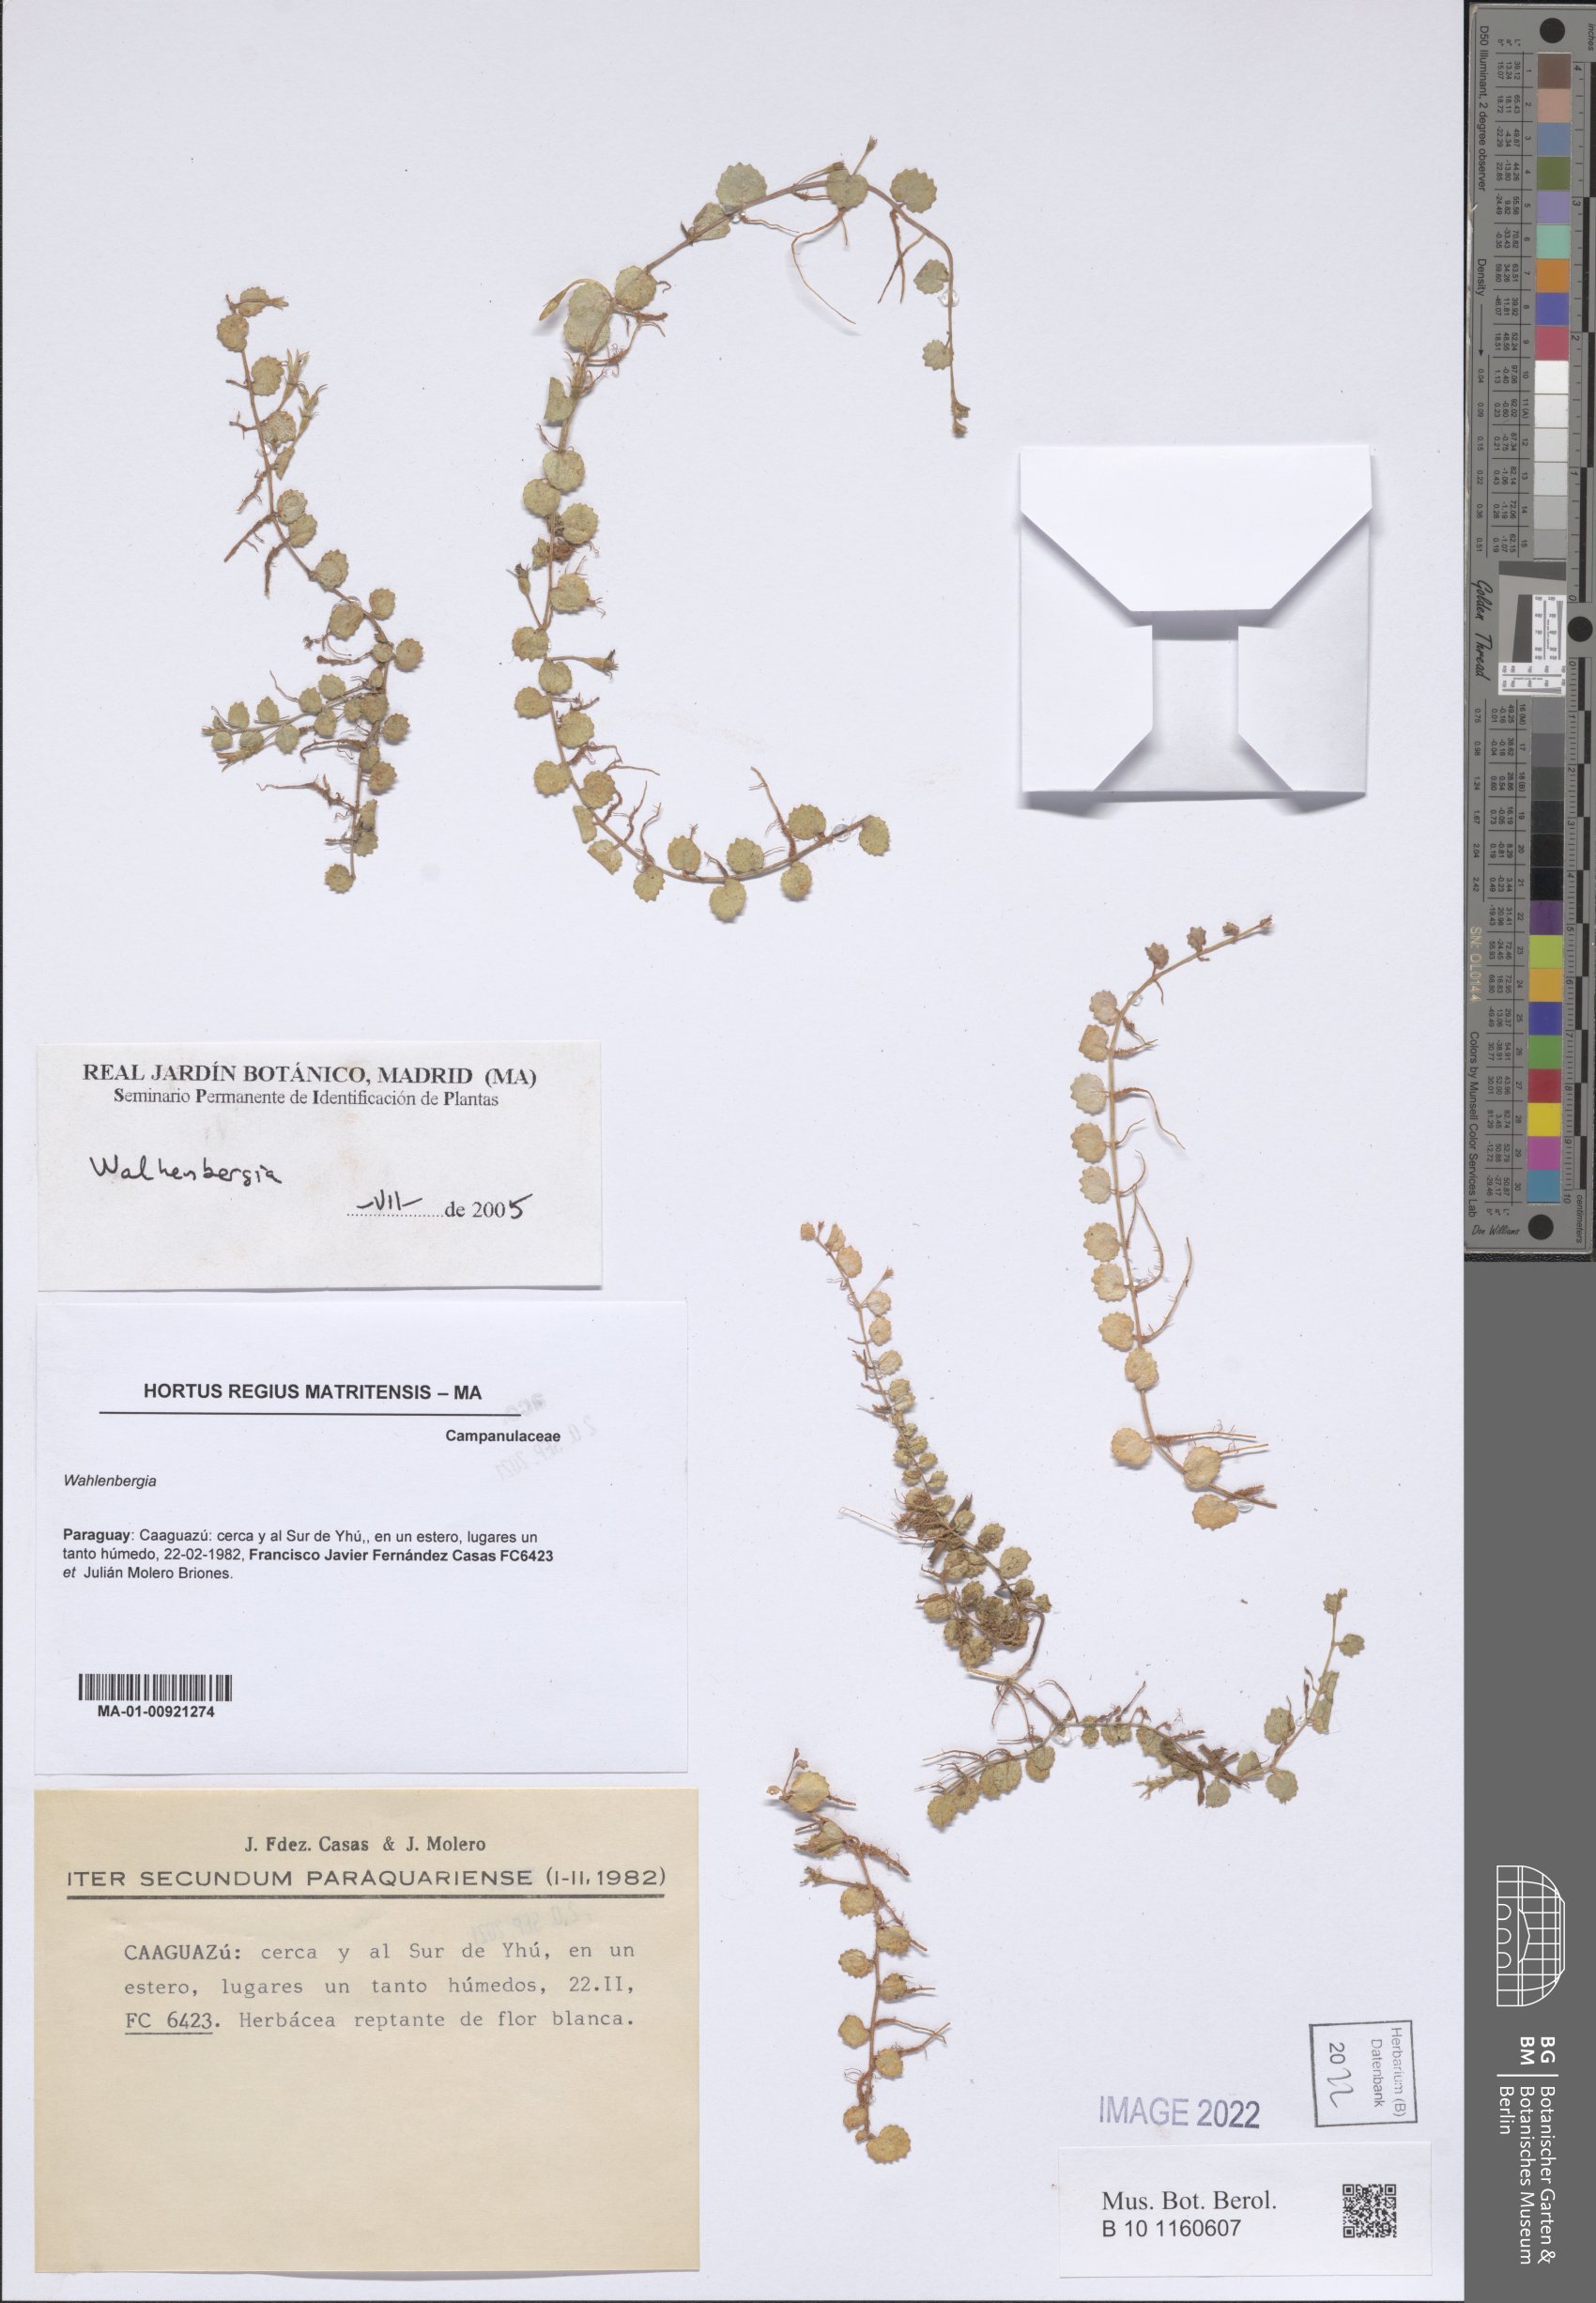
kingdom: Plantae
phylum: Tracheophyta
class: Magnoliopsida
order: Asterales
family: Campanulaceae
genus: Wahlenbergia
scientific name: Wahlenbergia
